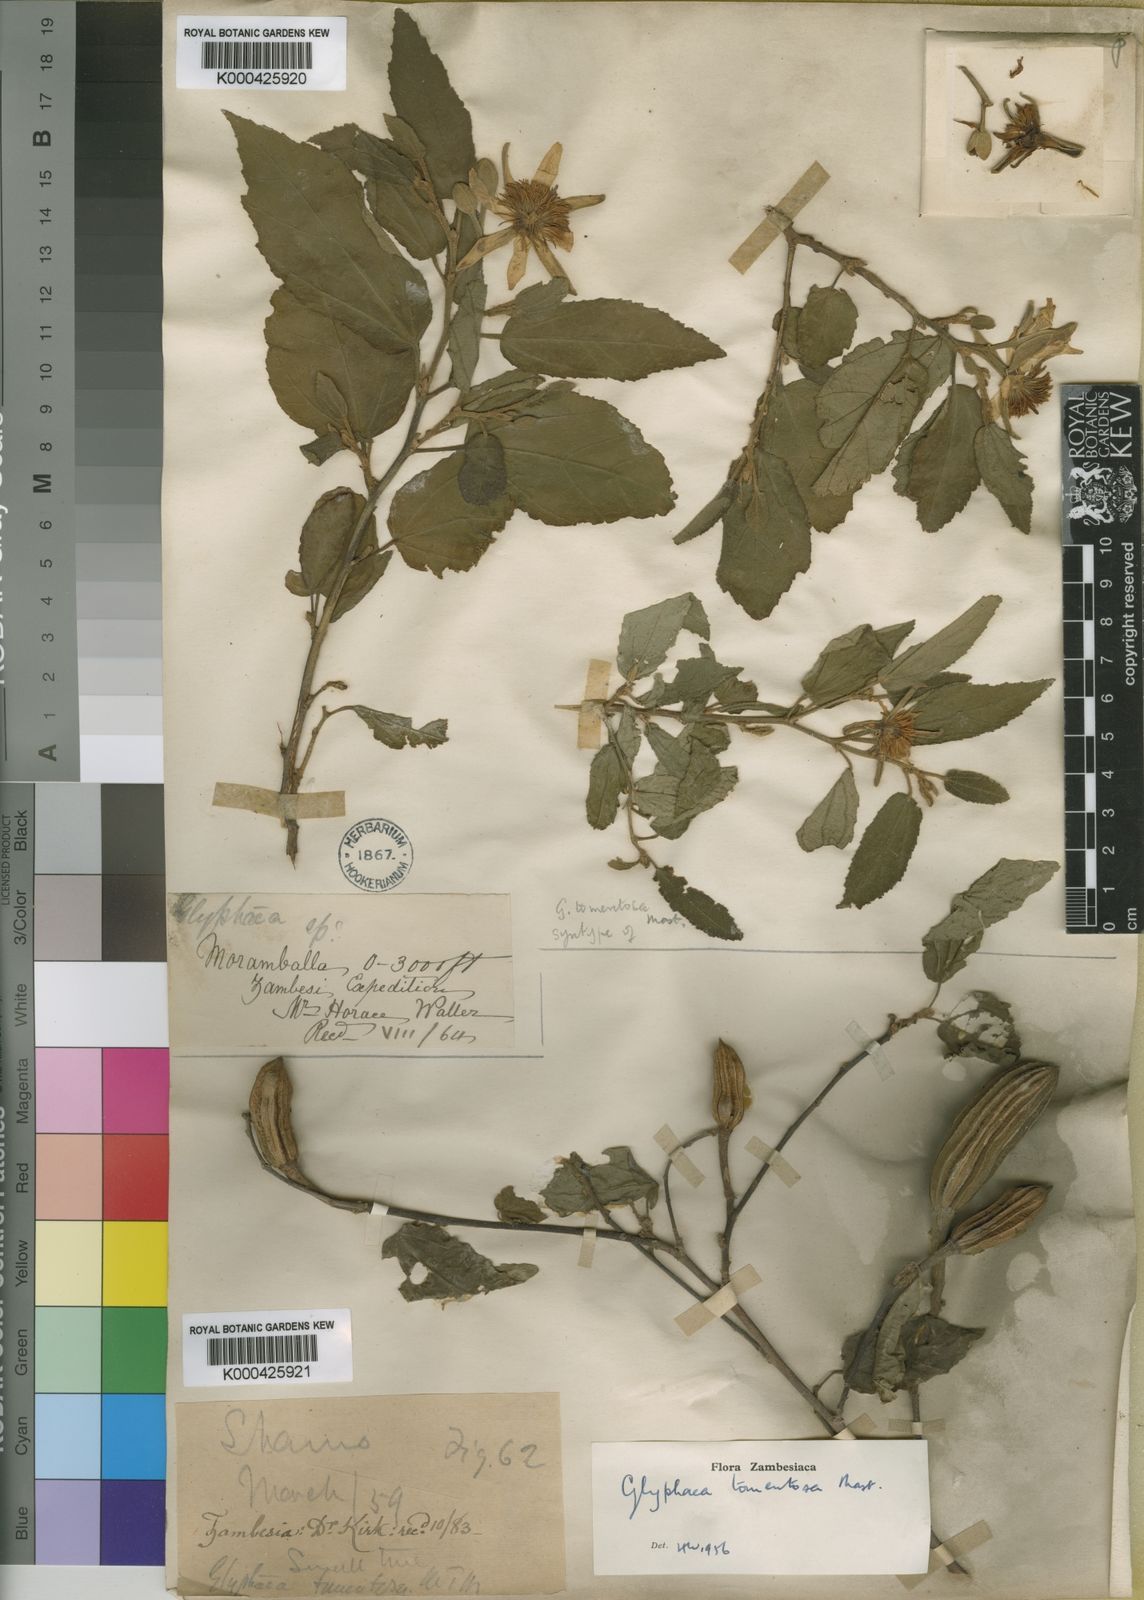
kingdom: Plantae
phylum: Tracheophyta
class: Magnoliopsida
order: Malvales
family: Malvaceae
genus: Glyphaea
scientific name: Glyphaea tomentosa
